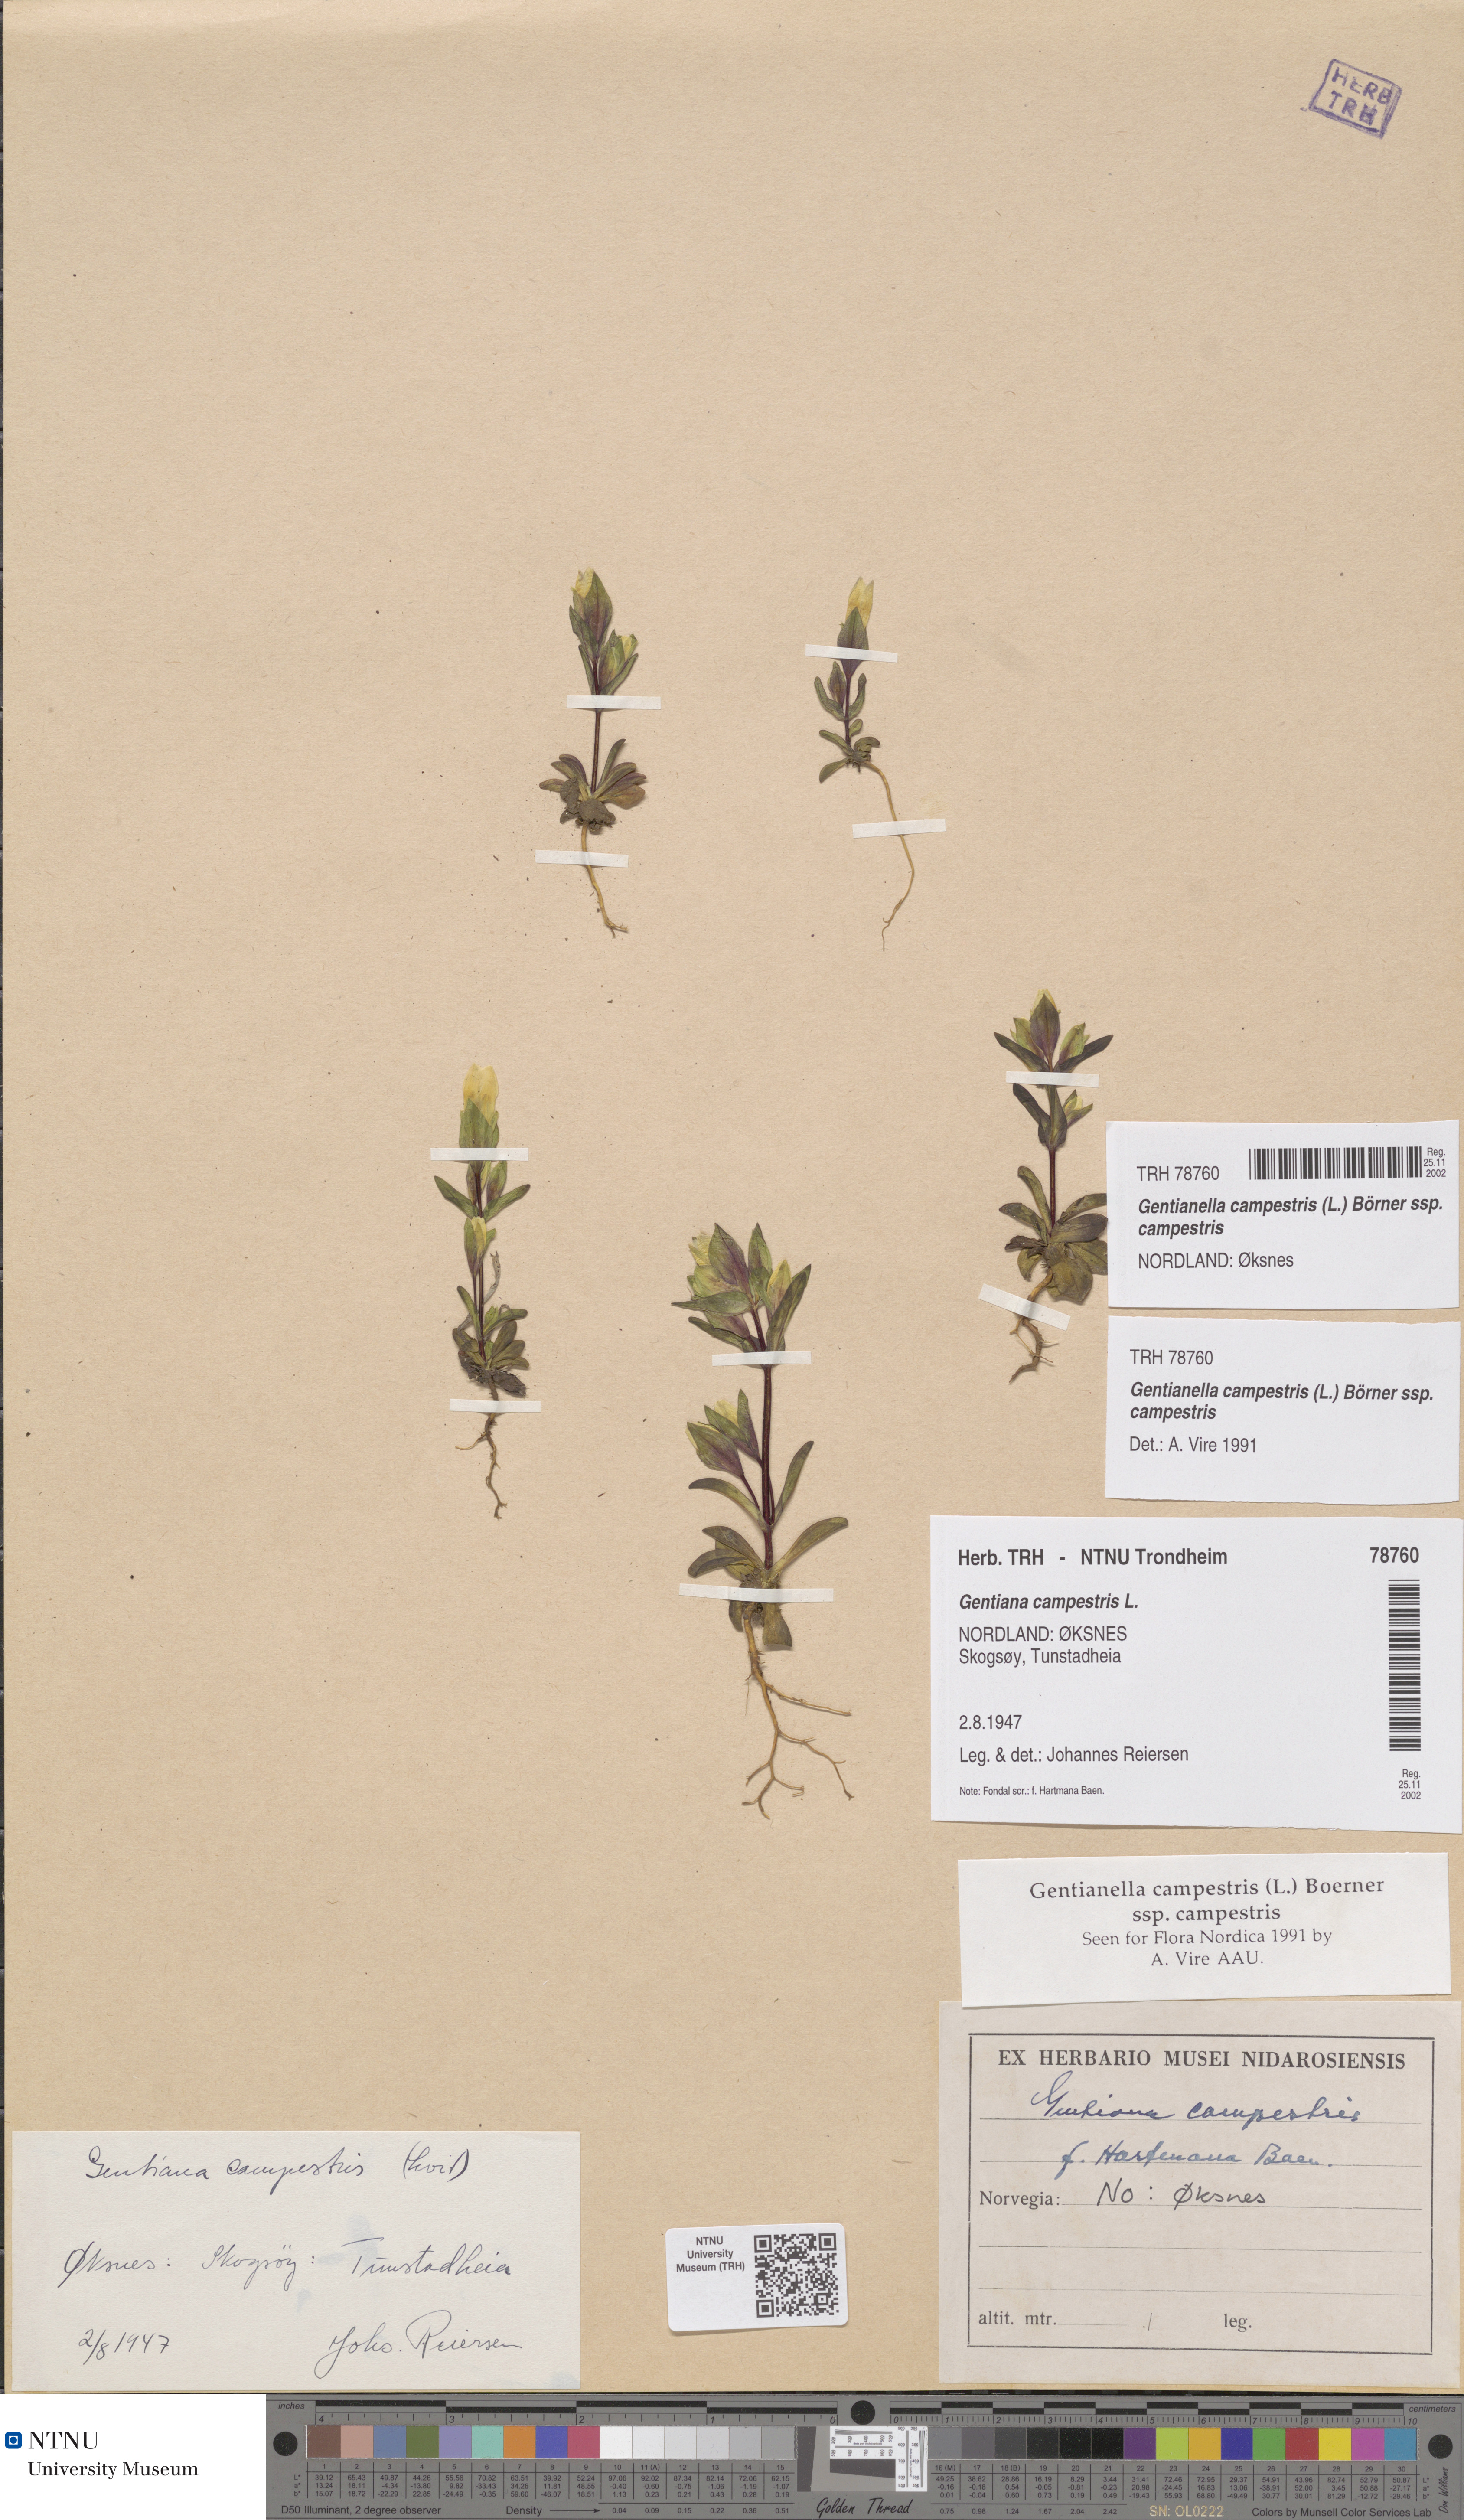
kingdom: Plantae
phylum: Tracheophyta
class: Magnoliopsida
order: Gentianales
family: Gentianaceae
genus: Gentianella
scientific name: Gentianella campestris
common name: Field gentian
